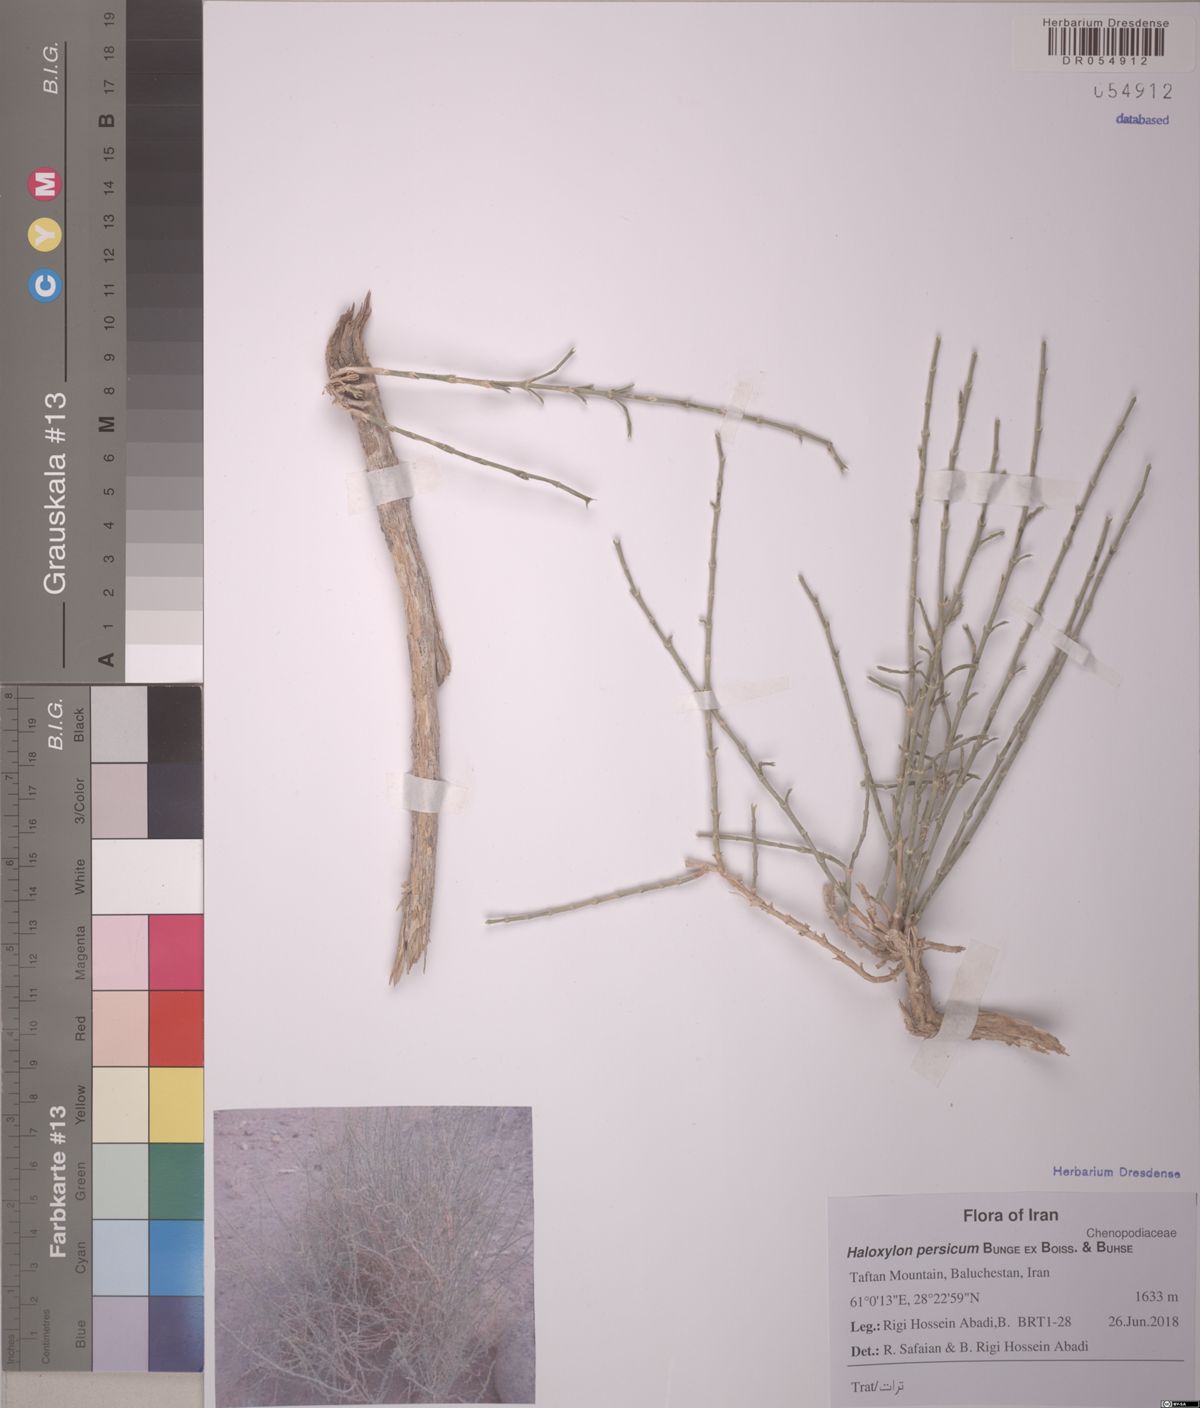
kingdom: Plantae
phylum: Tracheophyta
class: Magnoliopsida
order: Caryophyllales
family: Amaranthaceae
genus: Haloxylon
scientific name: Haloxylon salicornicum
